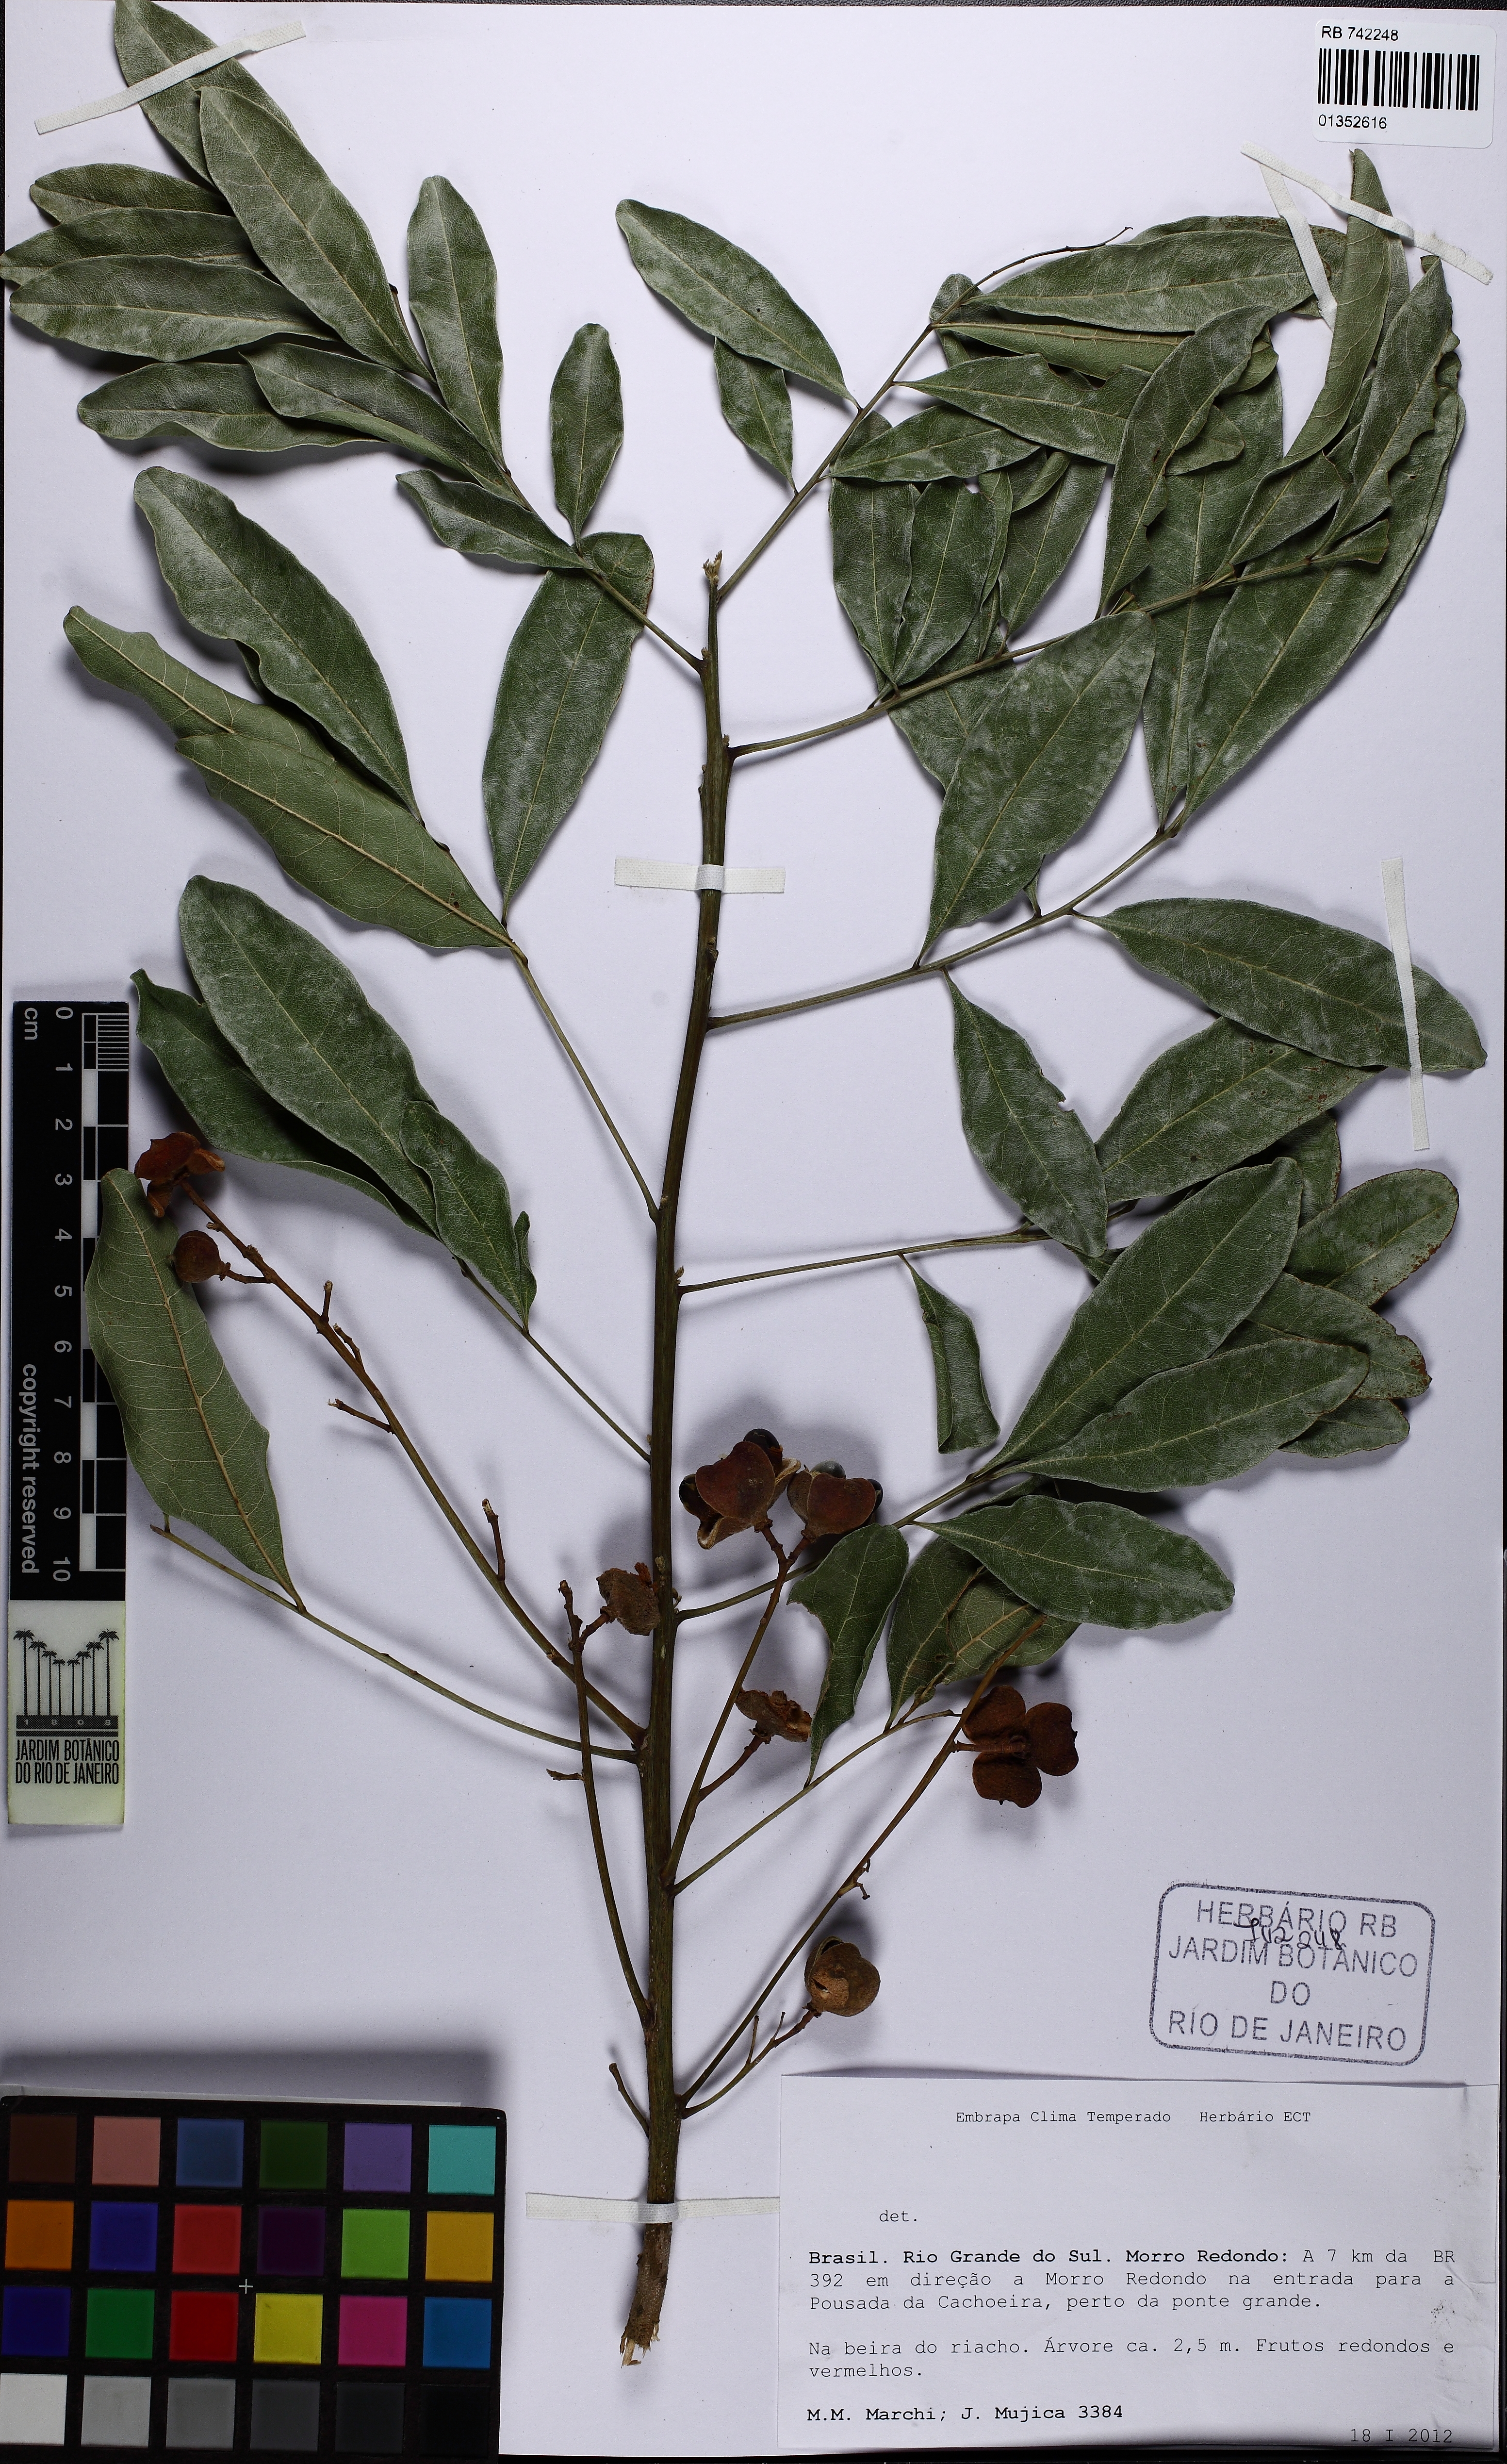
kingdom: Plantae
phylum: Tracheophyta
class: Magnoliopsida
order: Sapindales
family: Sapindaceae
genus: Cupania
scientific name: Cupania
